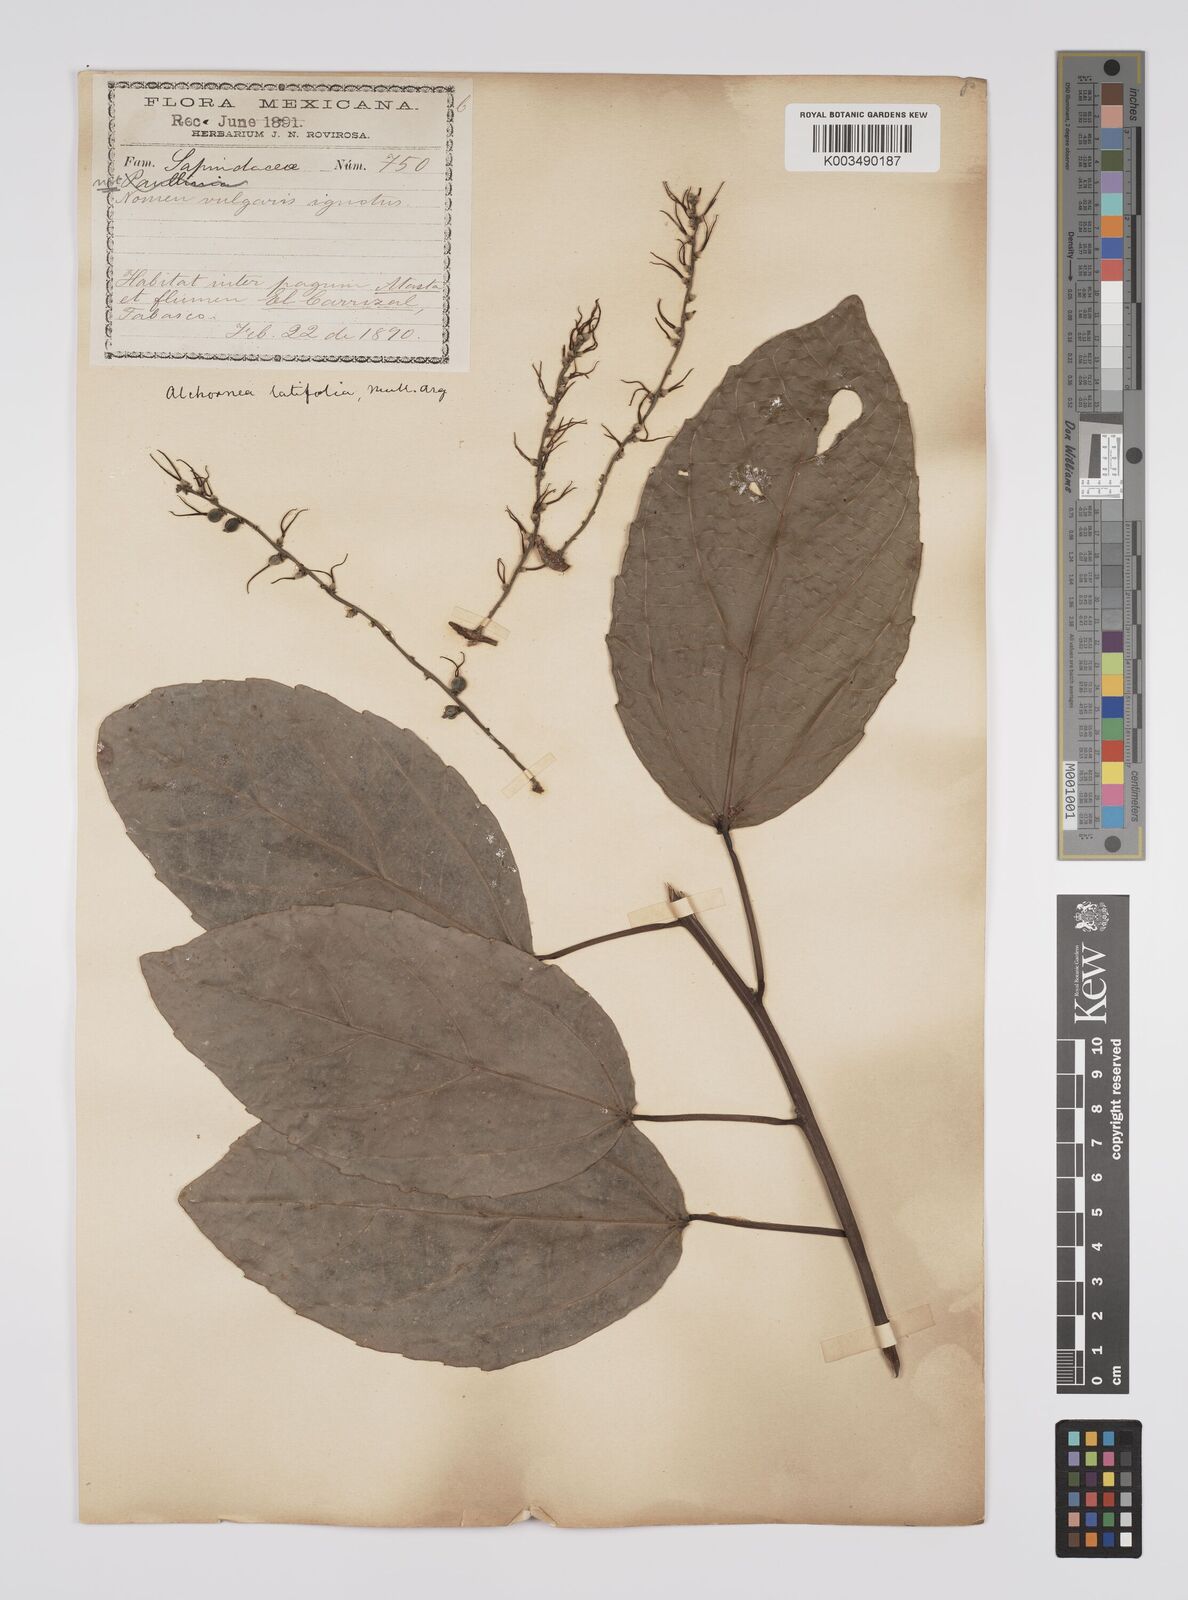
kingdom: Plantae
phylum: Tracheophyta
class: Magnoliopsida
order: Malpighiales
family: Euphorbiaceae
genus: Alchornea
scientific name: Alchornea latifolia
